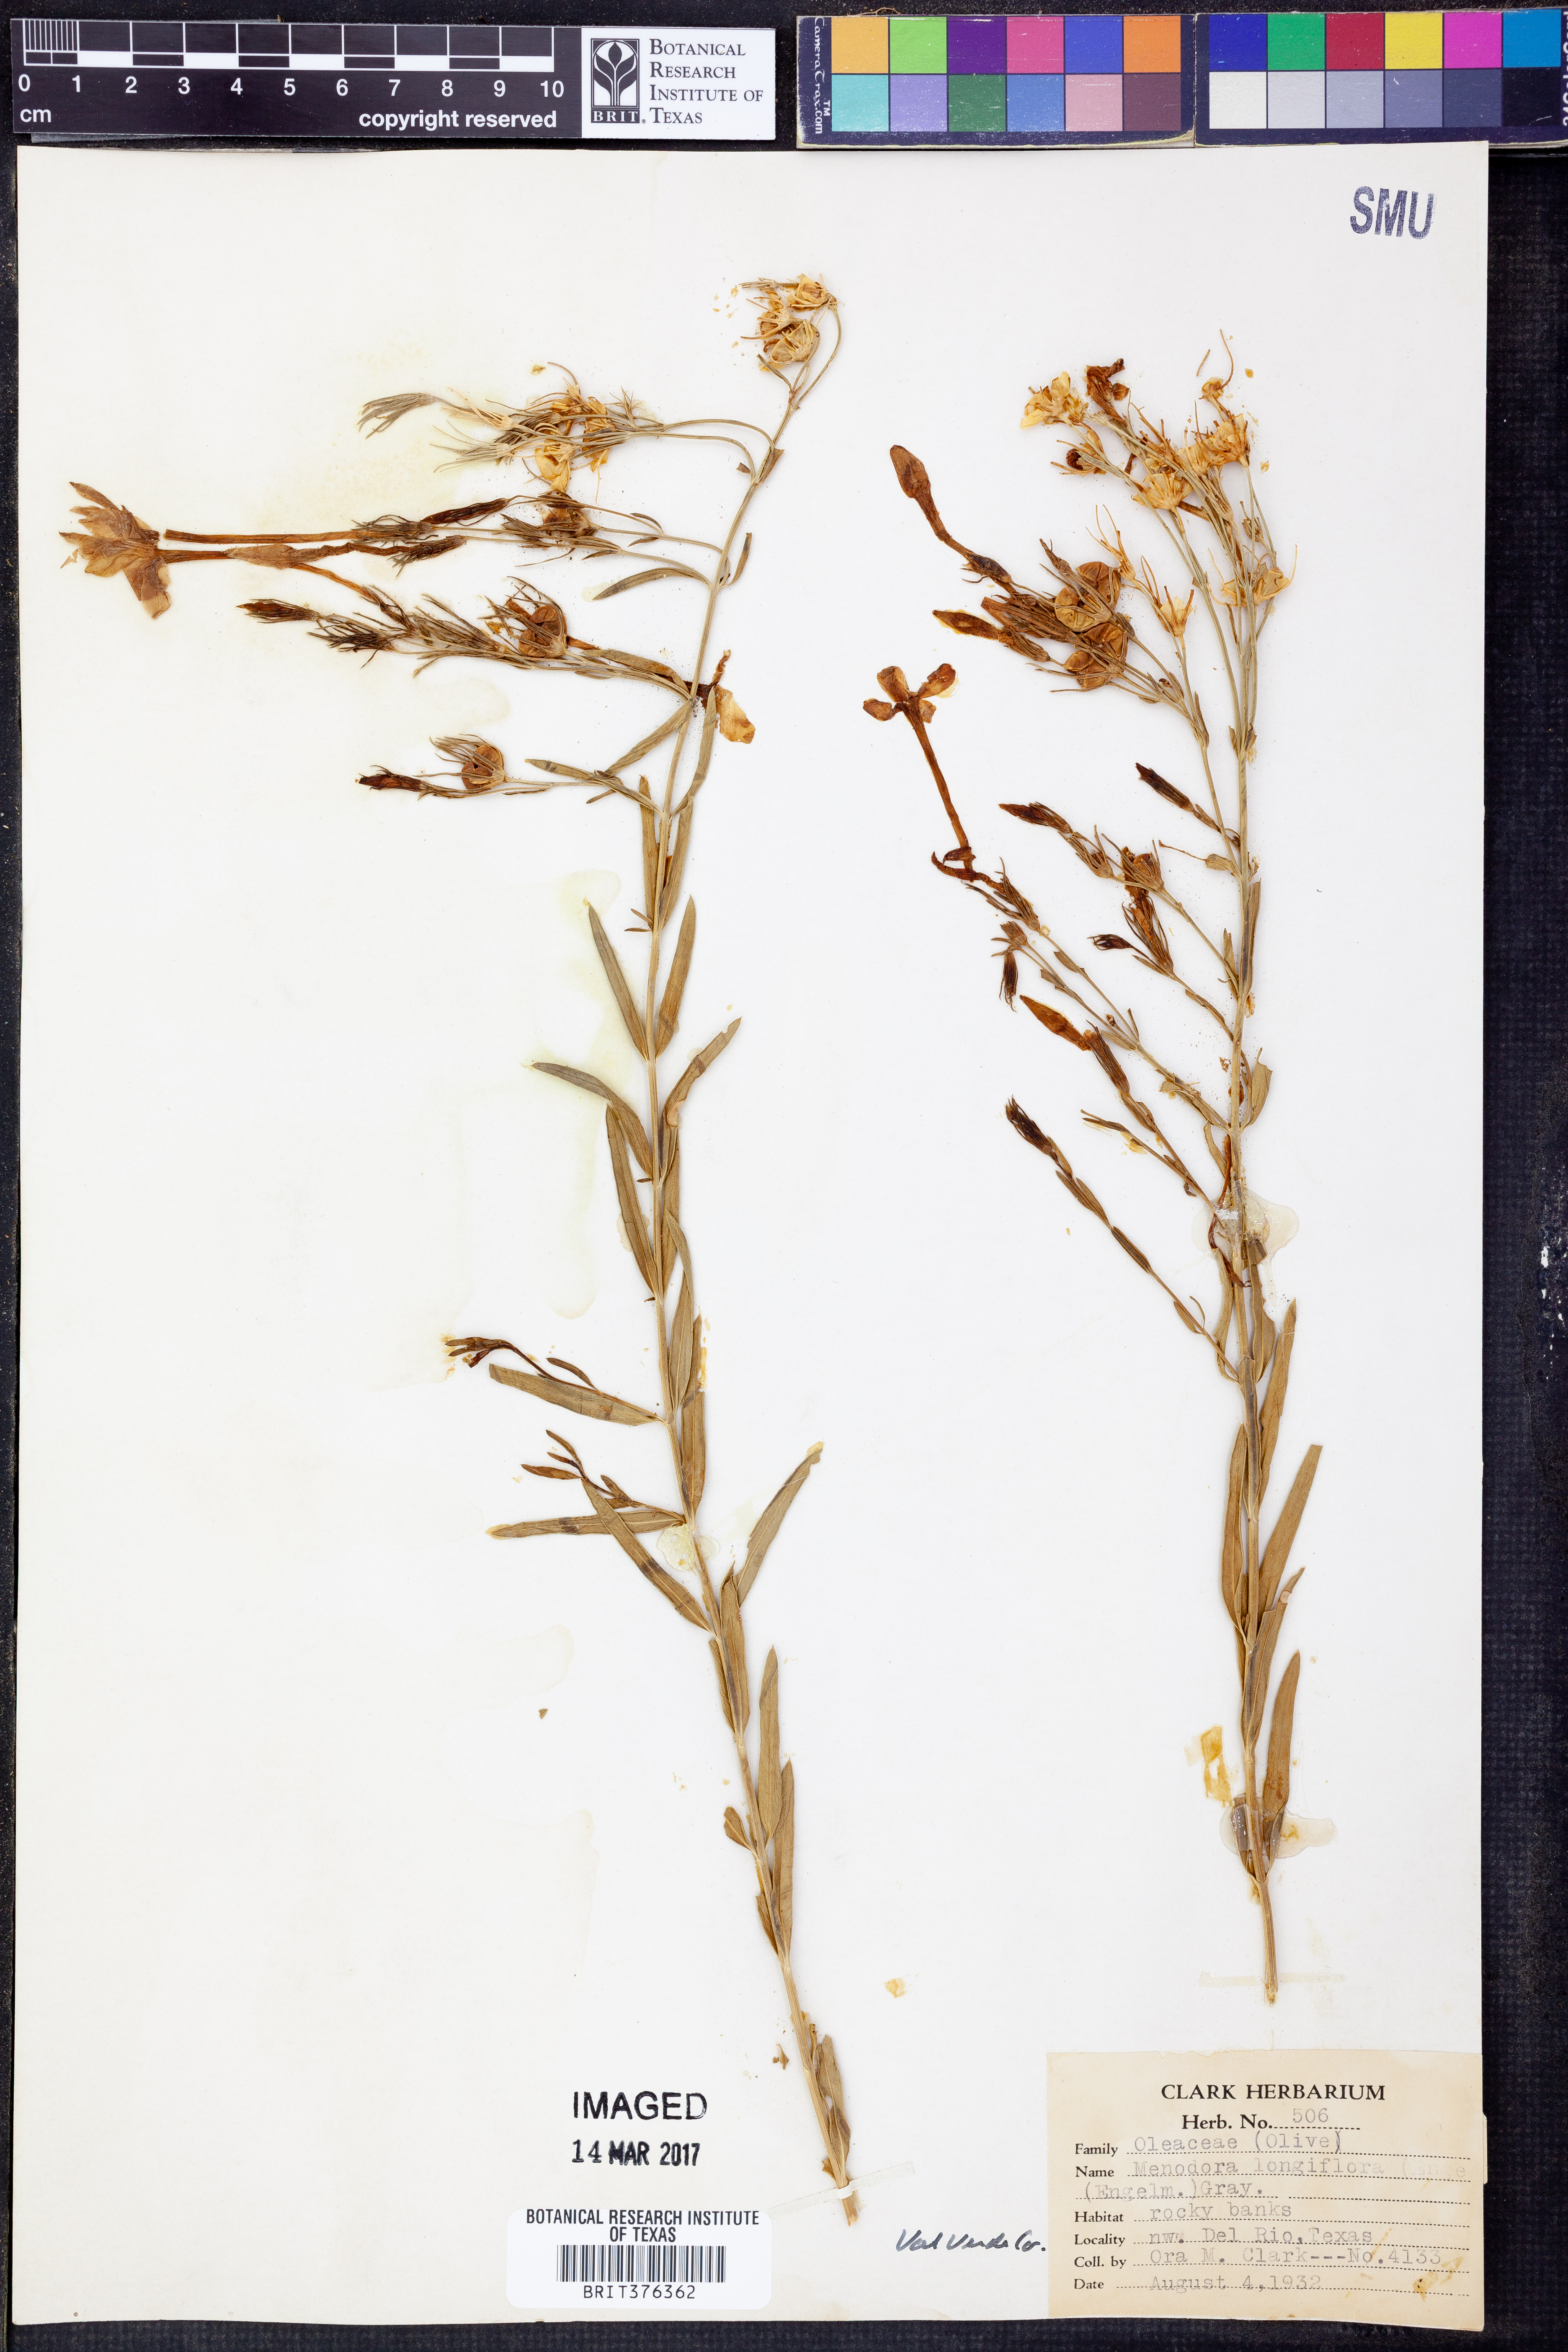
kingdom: Plantae
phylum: Tracheophyta
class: Magnoliopsida
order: Lamiales
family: Oleaceae
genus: Menodora
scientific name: Menodora longiflora
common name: Showy menodora
